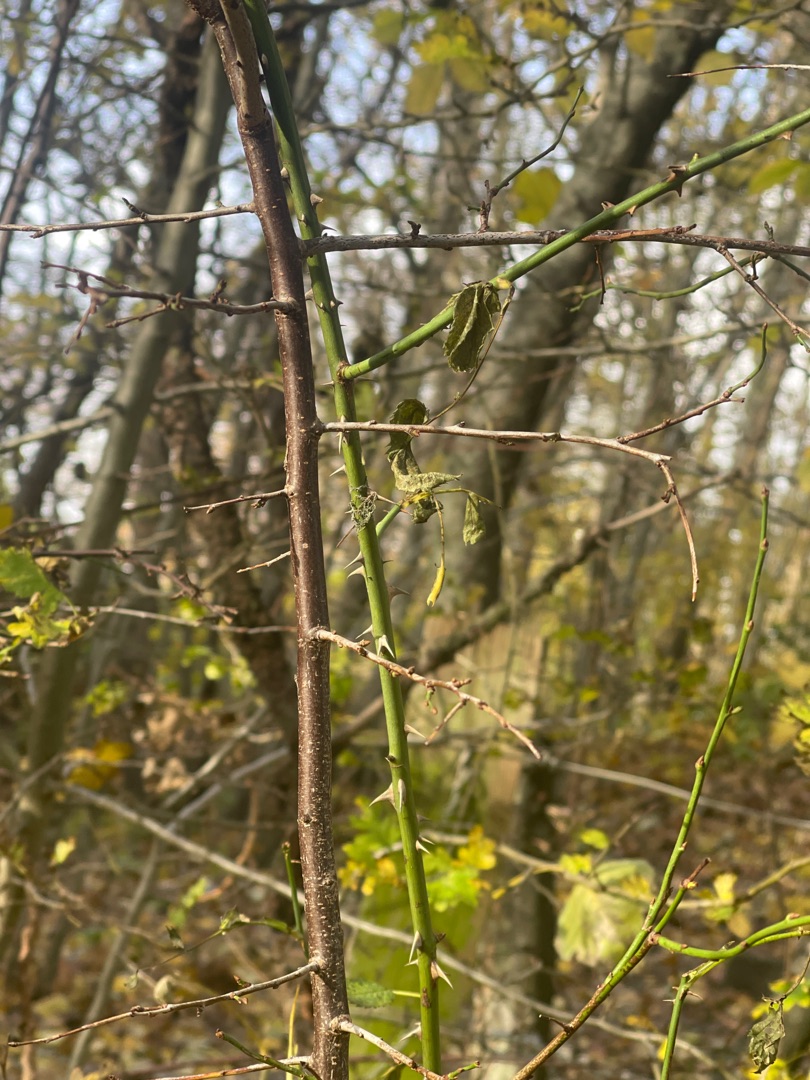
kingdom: Plantae
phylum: Tracheophyta
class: Magnoliopsida
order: Rosales
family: Rosaceae
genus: Prunus
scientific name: Prunus cerasifera
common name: Mirabel
